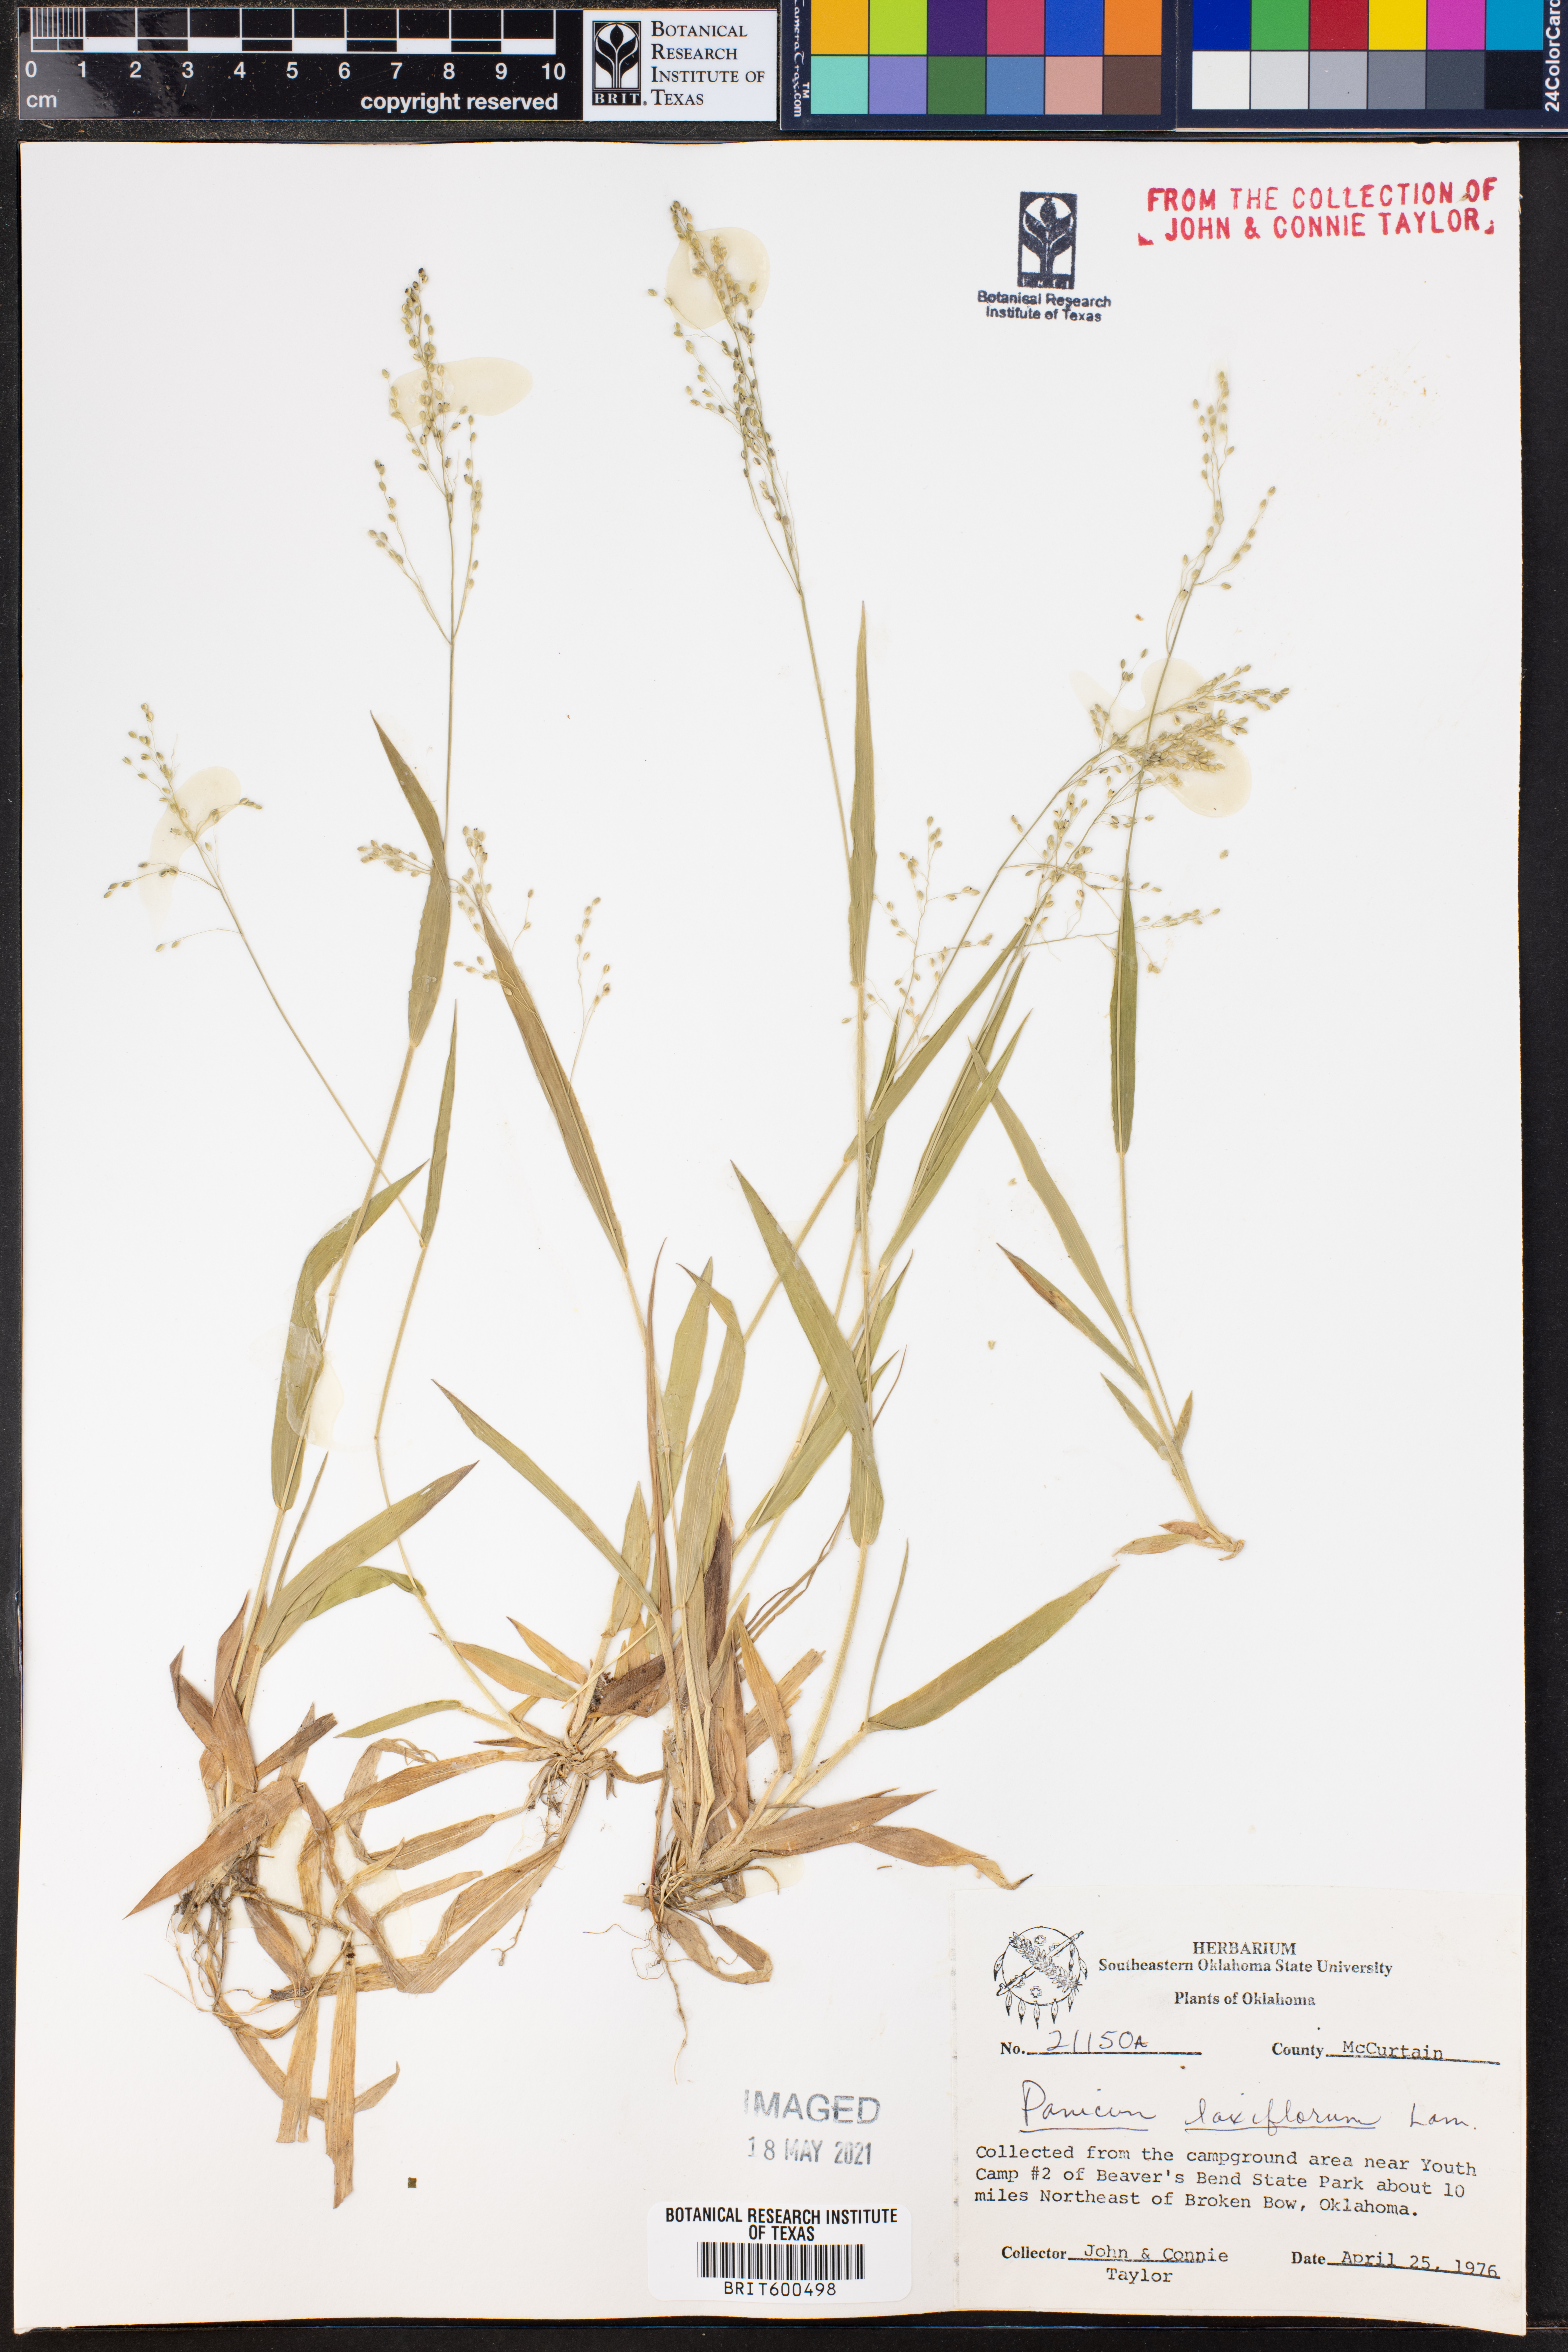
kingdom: Plantae
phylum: Tracheophyta
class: Liliopsida
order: Poales
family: Poaceae
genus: Dichanthelium
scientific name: Dichanthelium laxiflorum
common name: Soft-tuft panic grass
